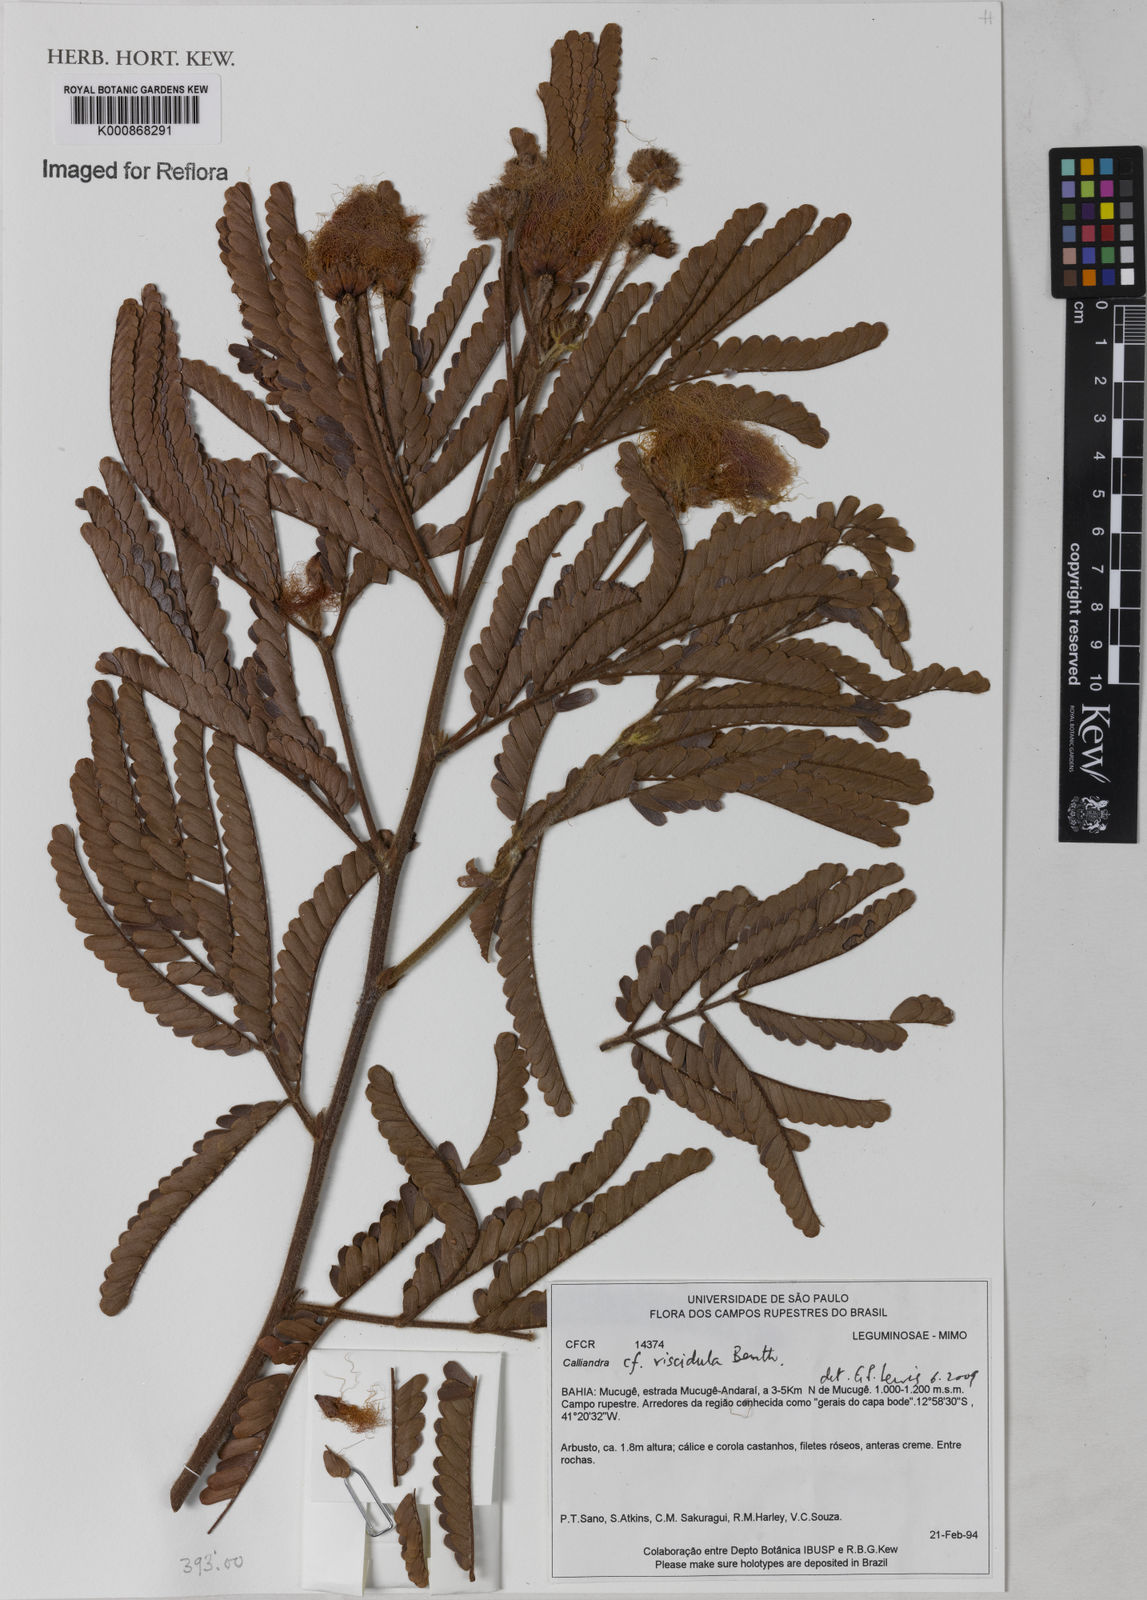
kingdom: Plantae
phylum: Tracheophyta
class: Magnoliopsida
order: Fabales
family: Fabaceae
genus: Calliandra
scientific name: Calliandra viscidula
